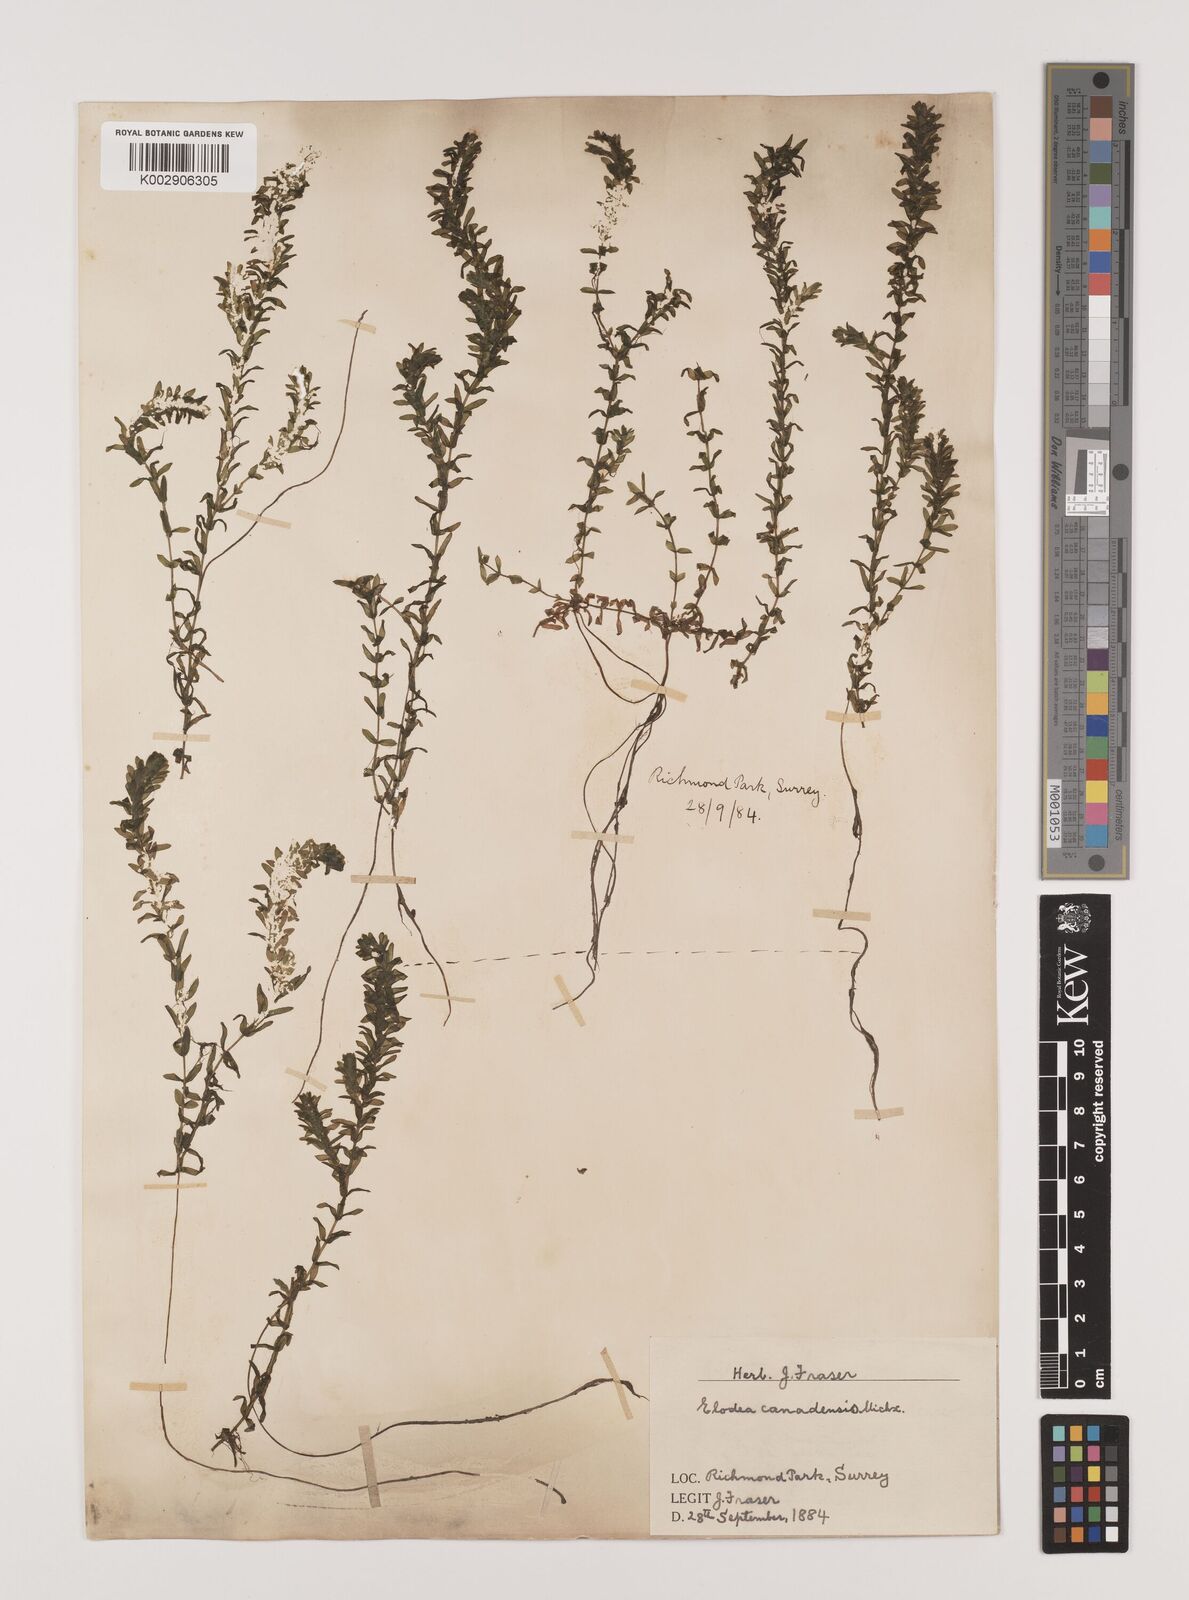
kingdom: Plantae
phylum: Tracheophyta
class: Liliopsida
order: Alismatales
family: Hydrocharitaceae
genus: Elodea
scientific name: Elodea canadensis
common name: Canadian waterweed
